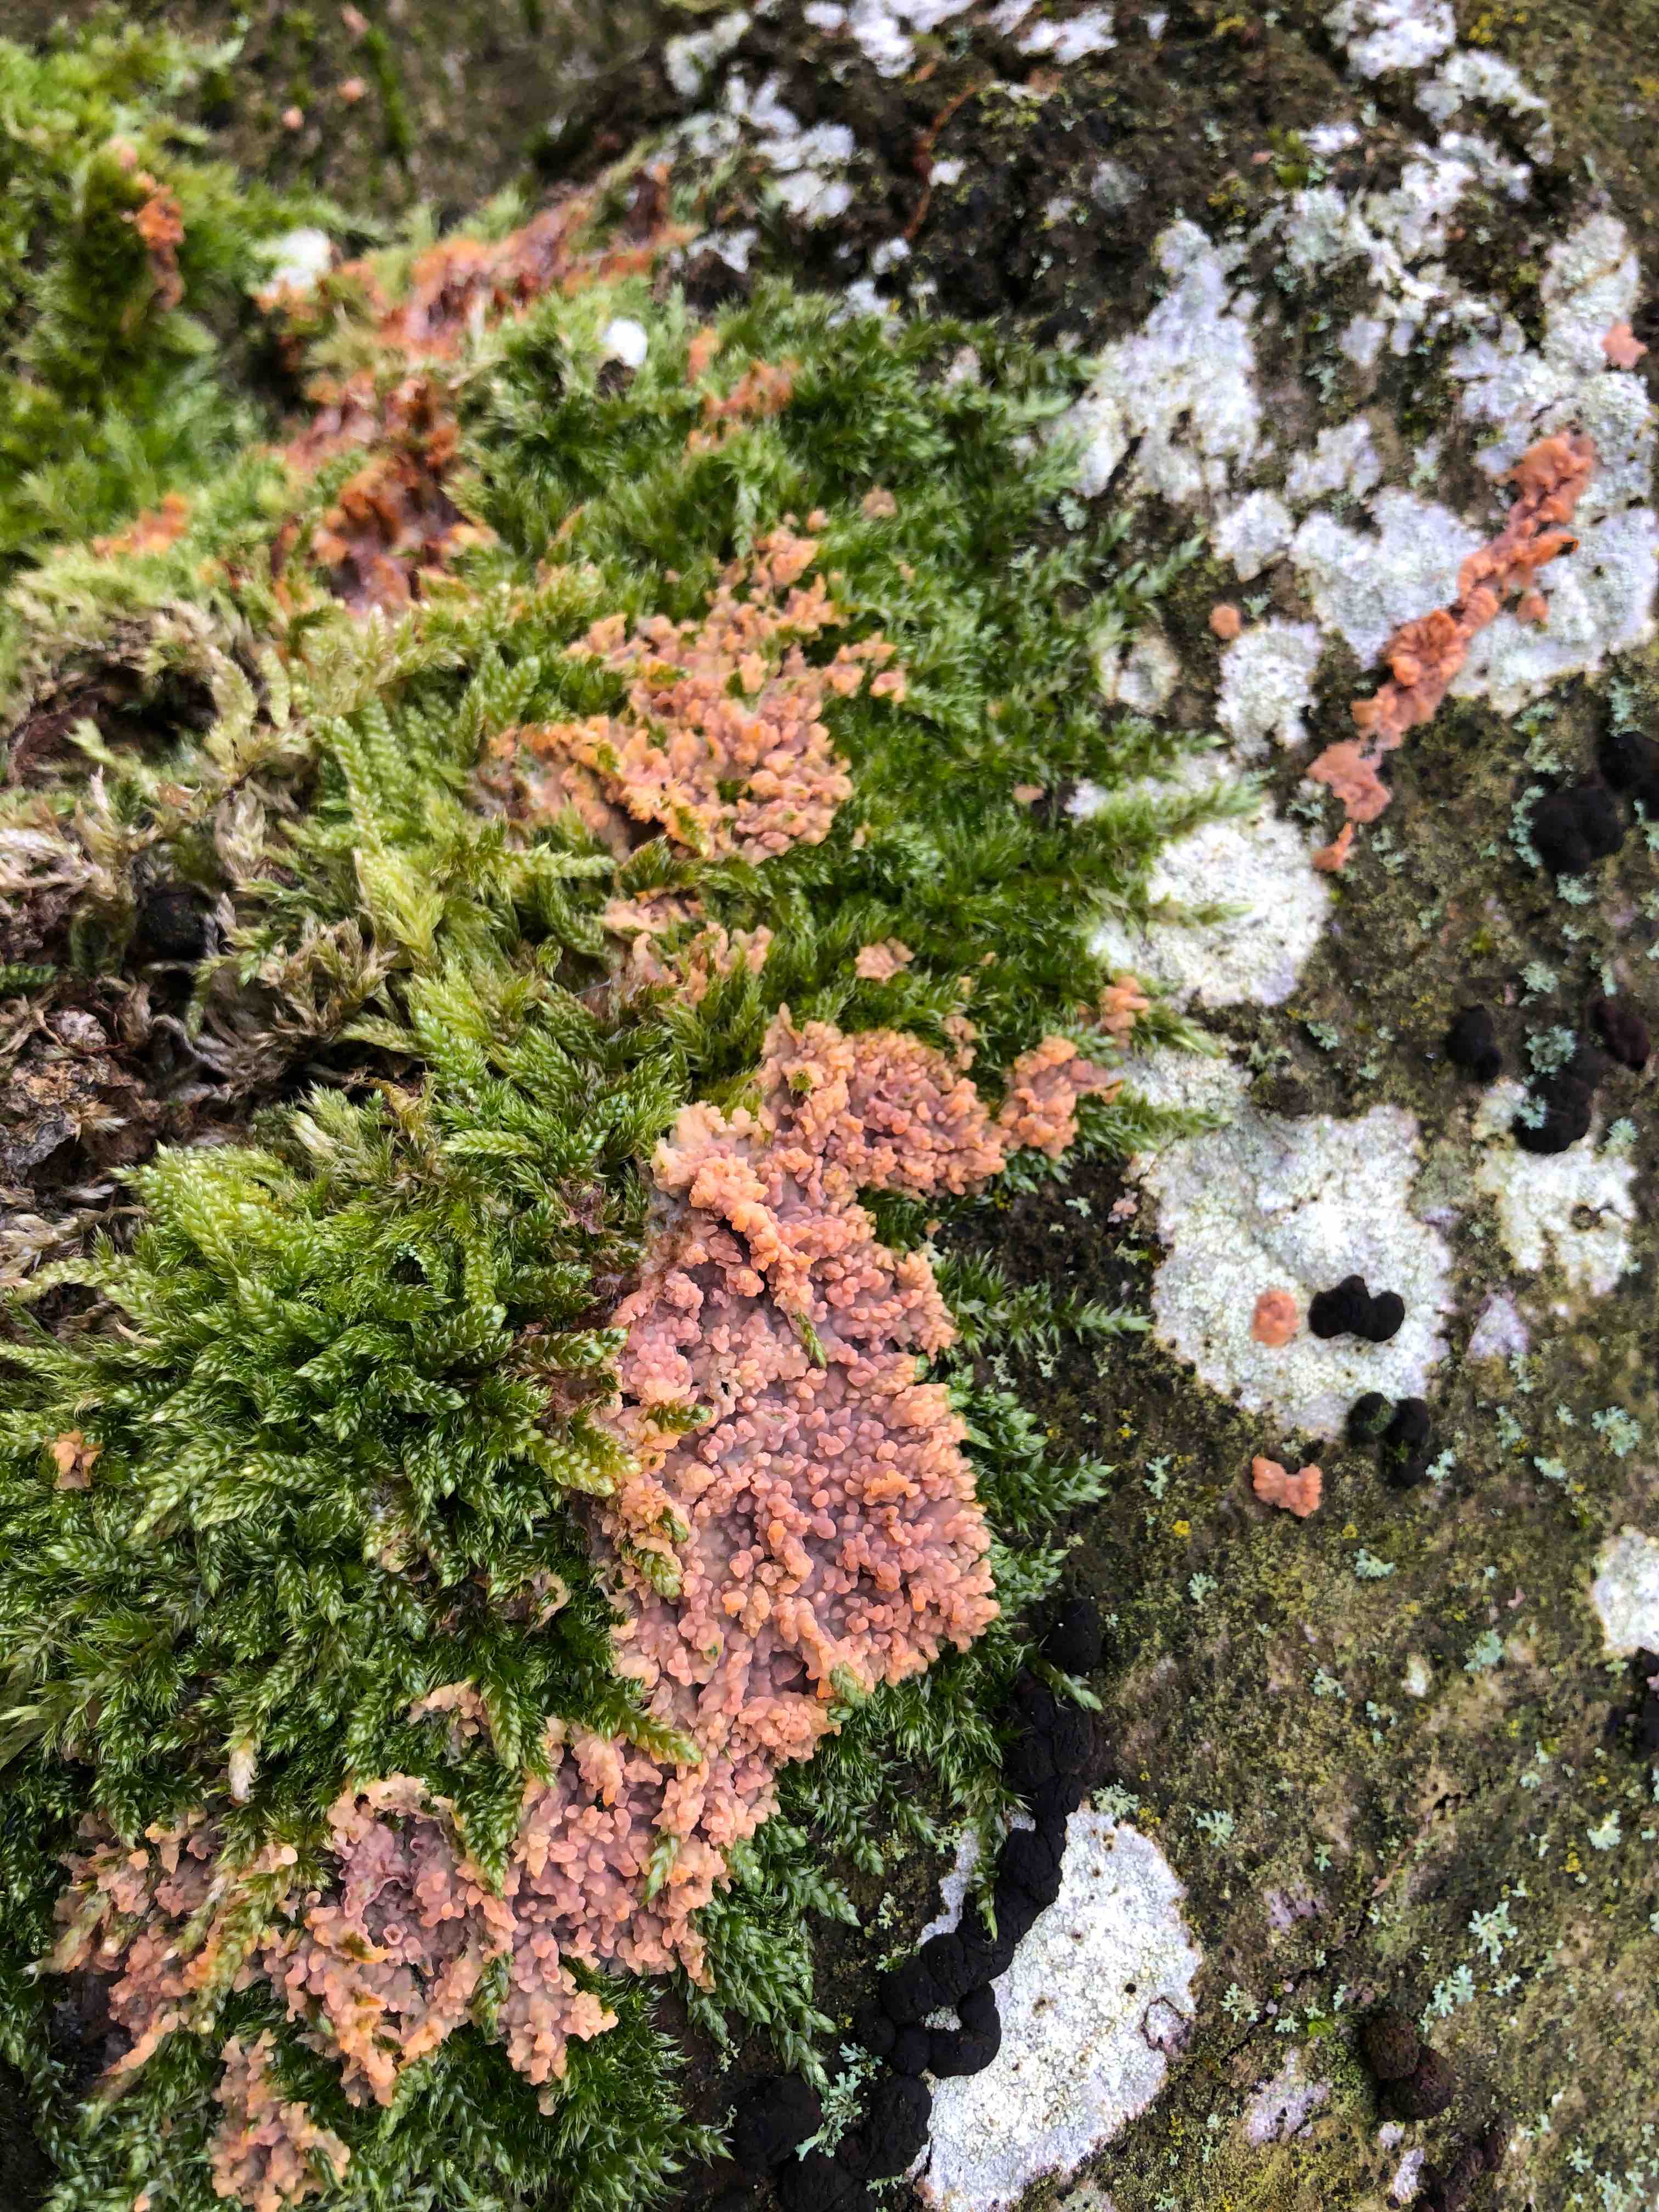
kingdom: Fungi
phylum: Basidiomycota
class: Agaricomycetes
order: Polyporales
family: Meruliaceae
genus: Phlebia
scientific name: Phlebia radiata
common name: stråle-åresvamp
